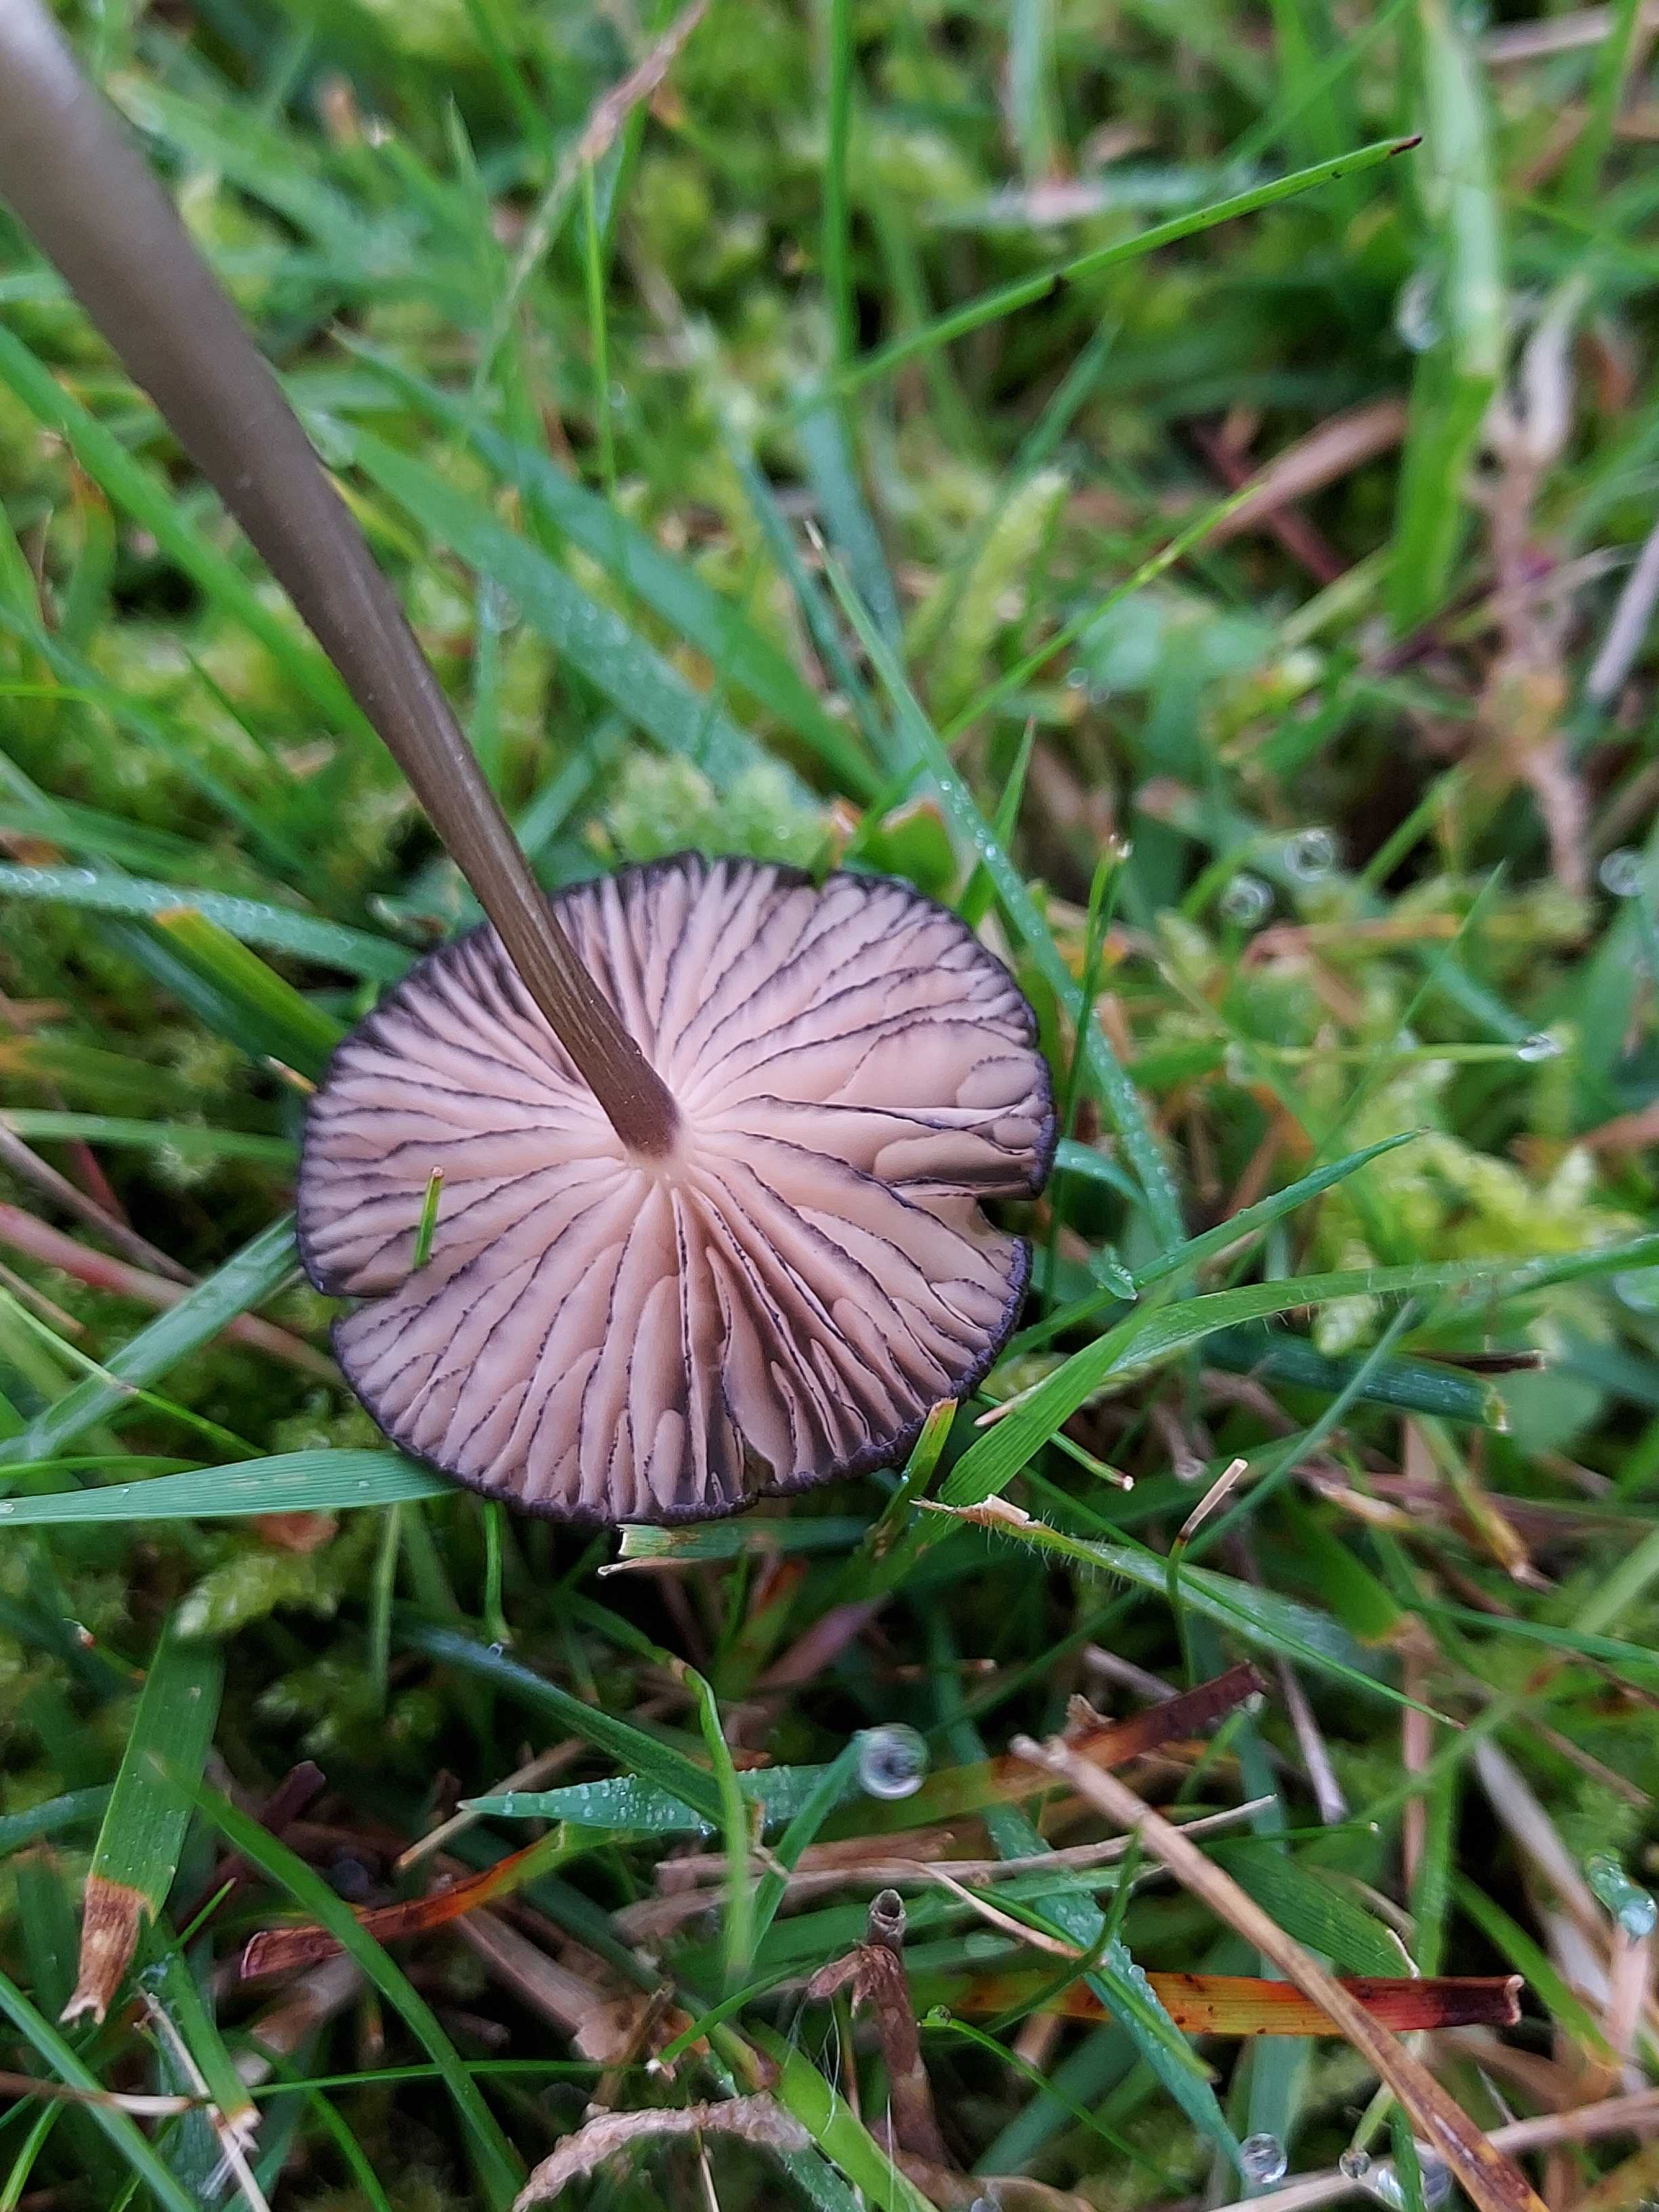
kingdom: Fungi
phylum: Basidiomycota
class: Agaricomycetes
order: Agaricales
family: Entolomataceae
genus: Entoloma
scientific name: Entoloma
